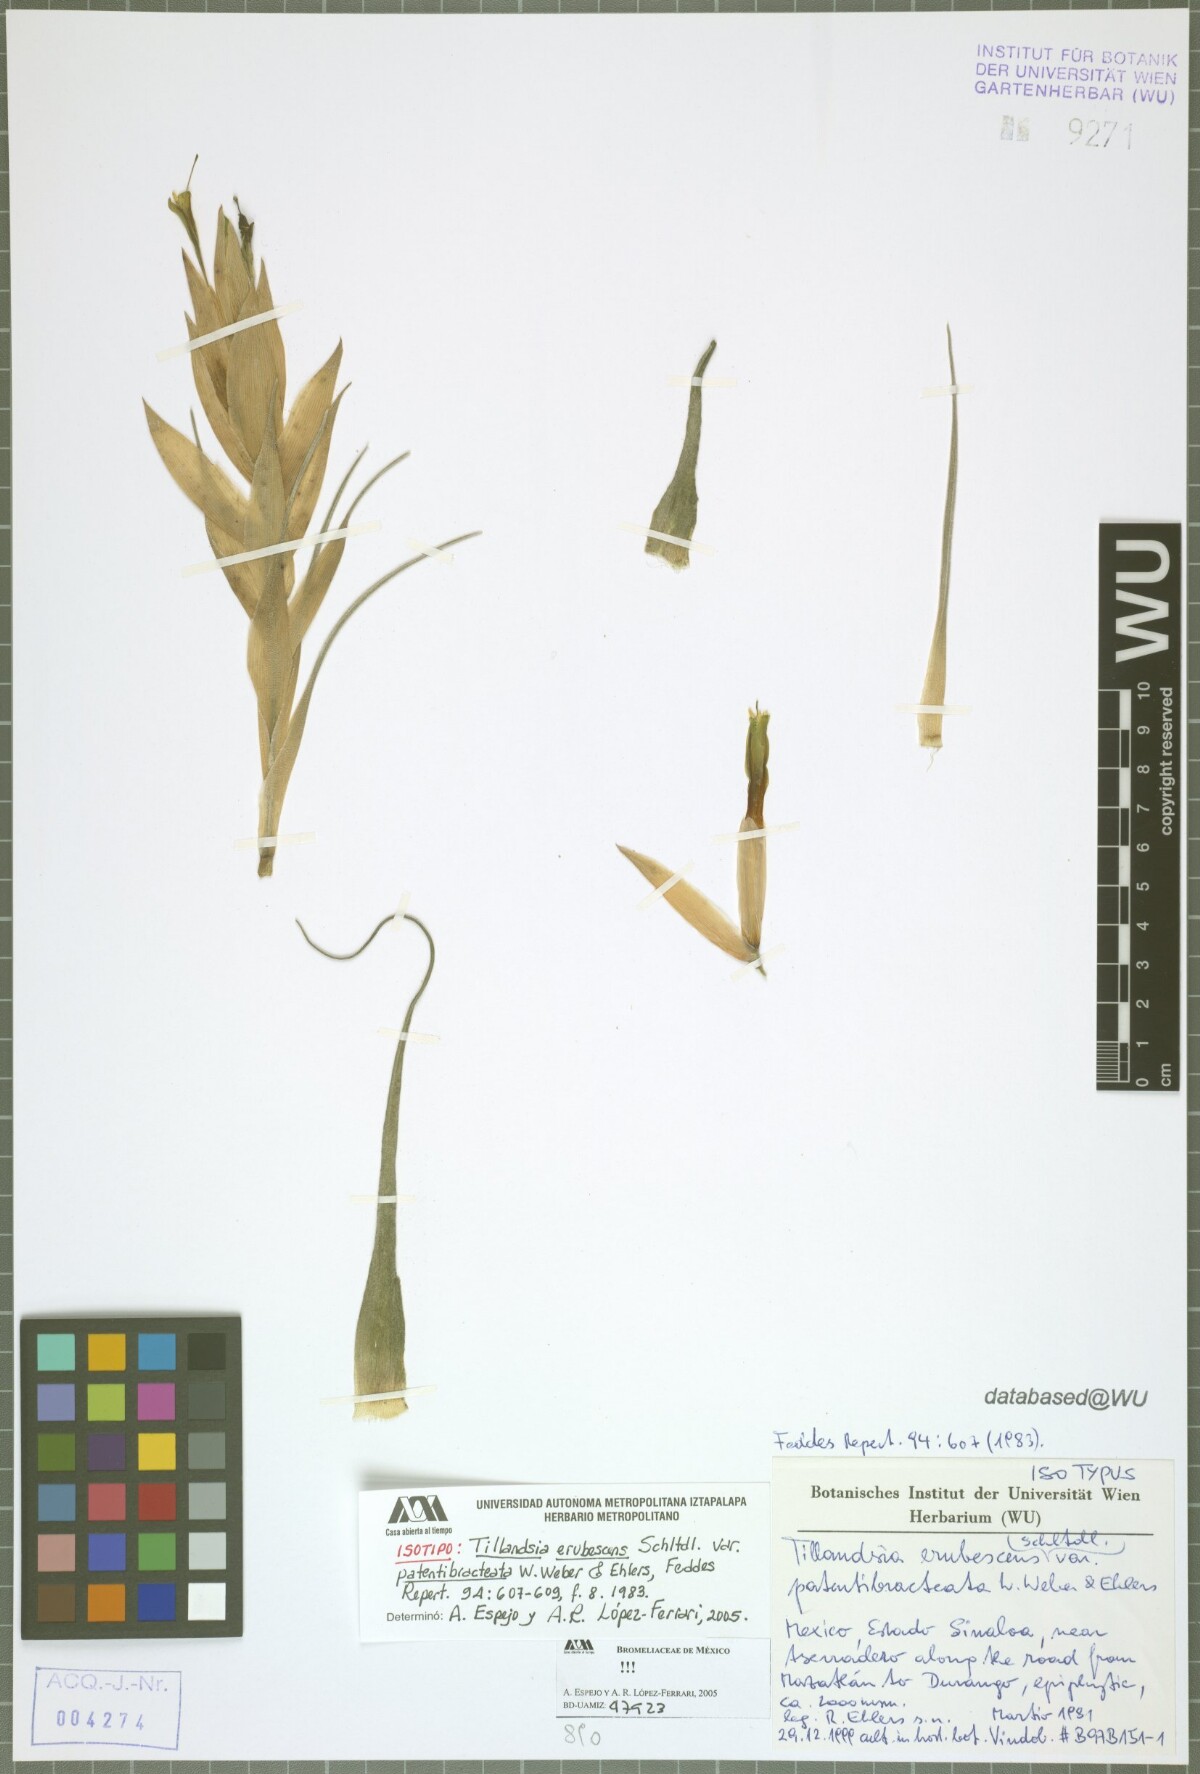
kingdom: Plantae
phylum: Tracheophyta
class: Liliopsida
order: Poales
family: Bromeliaceae
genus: Tillandsia
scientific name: Tillandsia erubescens
